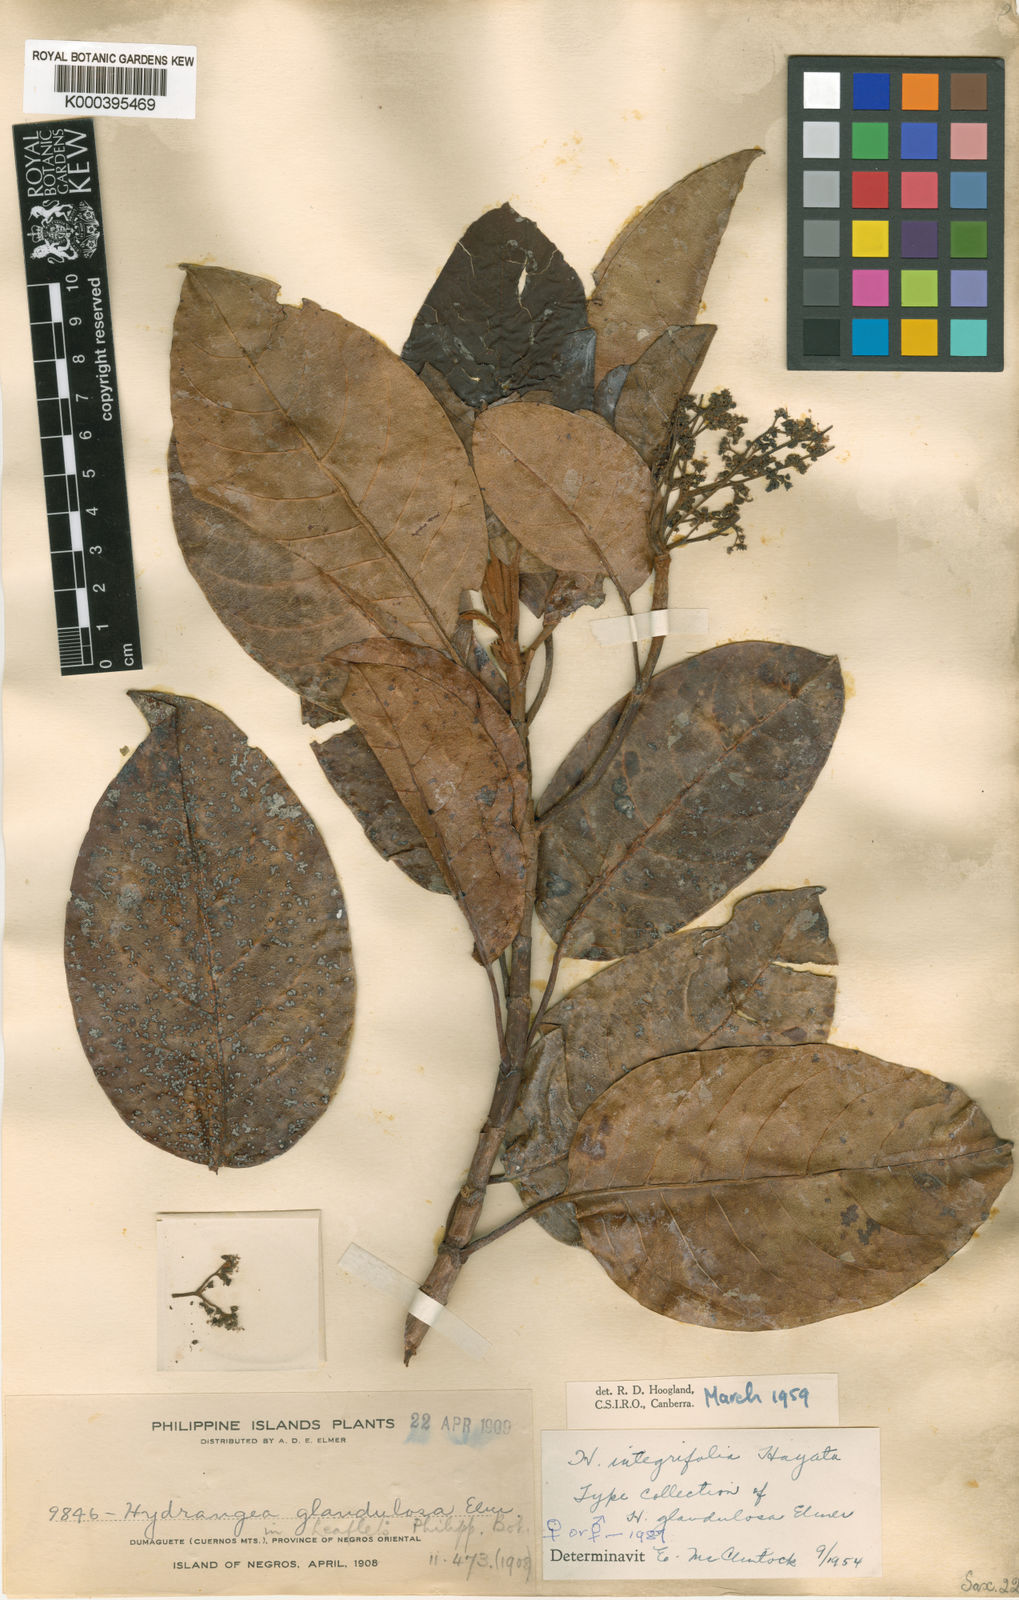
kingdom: Plantae
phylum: Tracheophyta
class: Magnoliopsida
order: Cornales
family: Hydrangeaceae
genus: Hydrangea
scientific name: Hydrangea integrifolia
